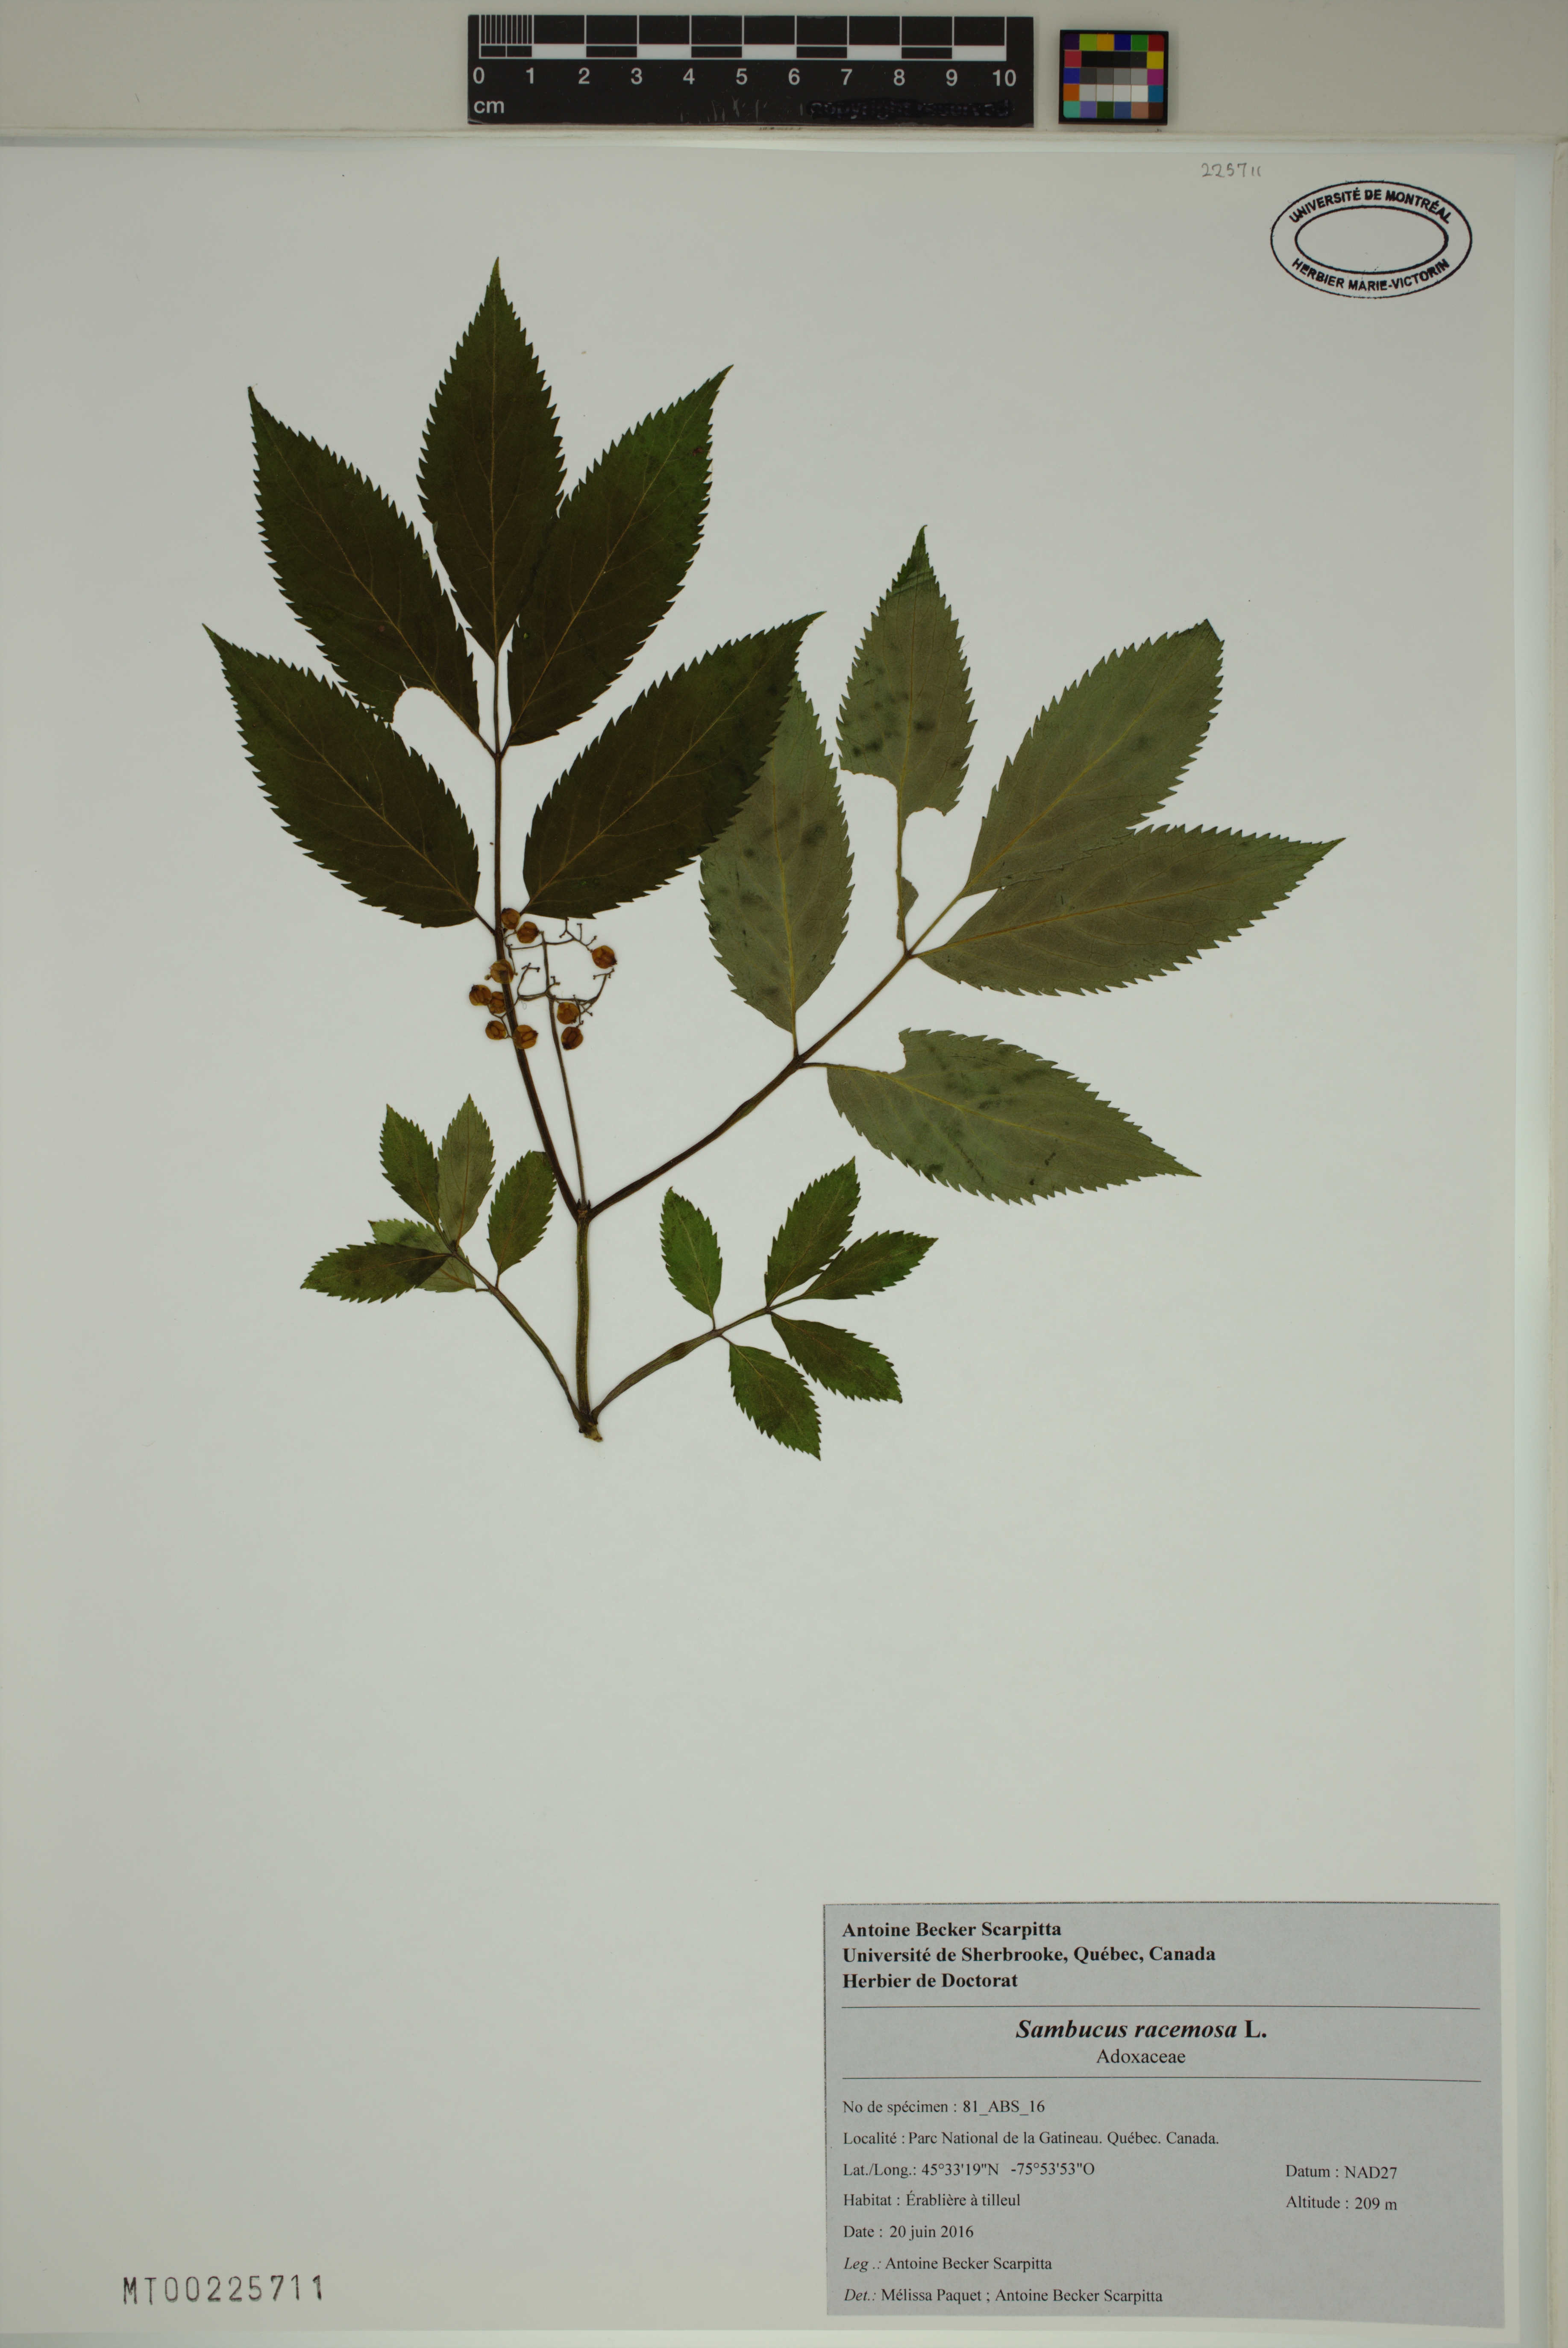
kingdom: Plantae
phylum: Tracheophyta
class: Magnoliopsida
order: Dipsacales
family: Viburnaceae
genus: Sambucus
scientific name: Sambucus racemosa
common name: Red-berried elder
